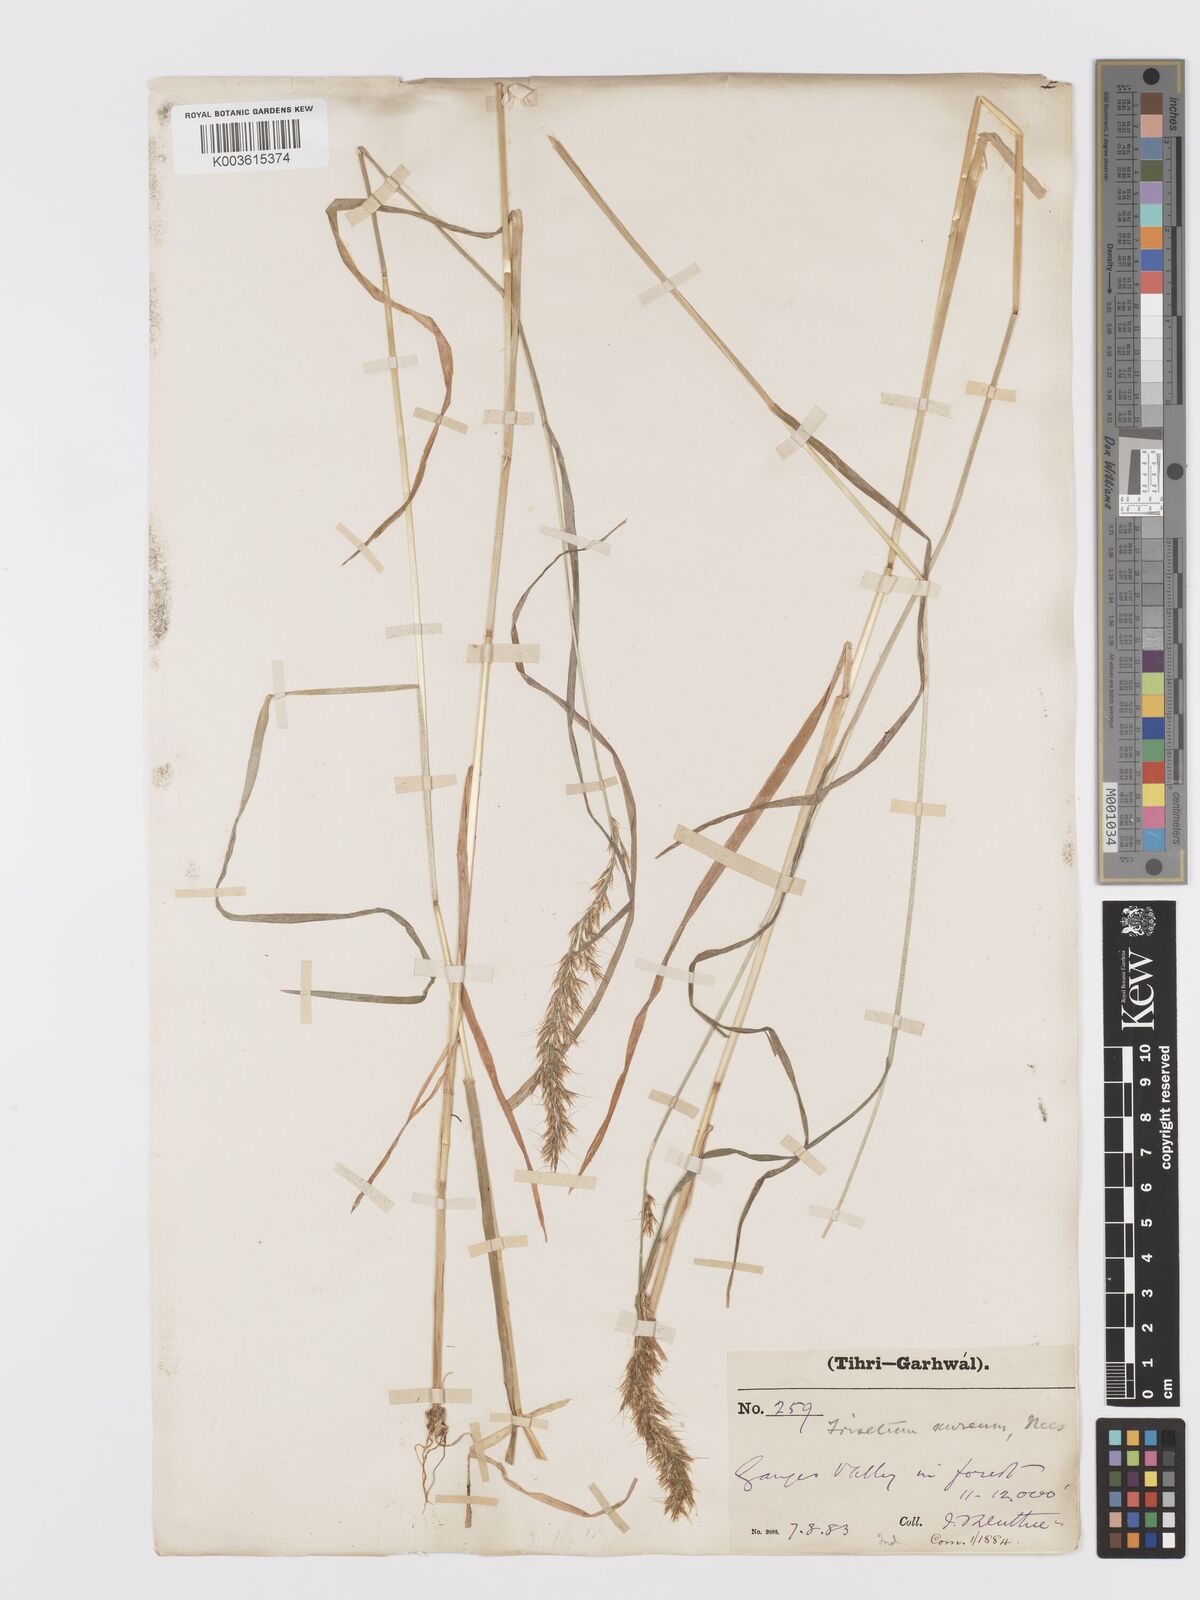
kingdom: Plantae
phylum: Tracheophyta
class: Liliopsida
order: Poales
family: Poaceae
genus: Sibirotrisetum
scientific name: Sibirotrisetum aeneum
